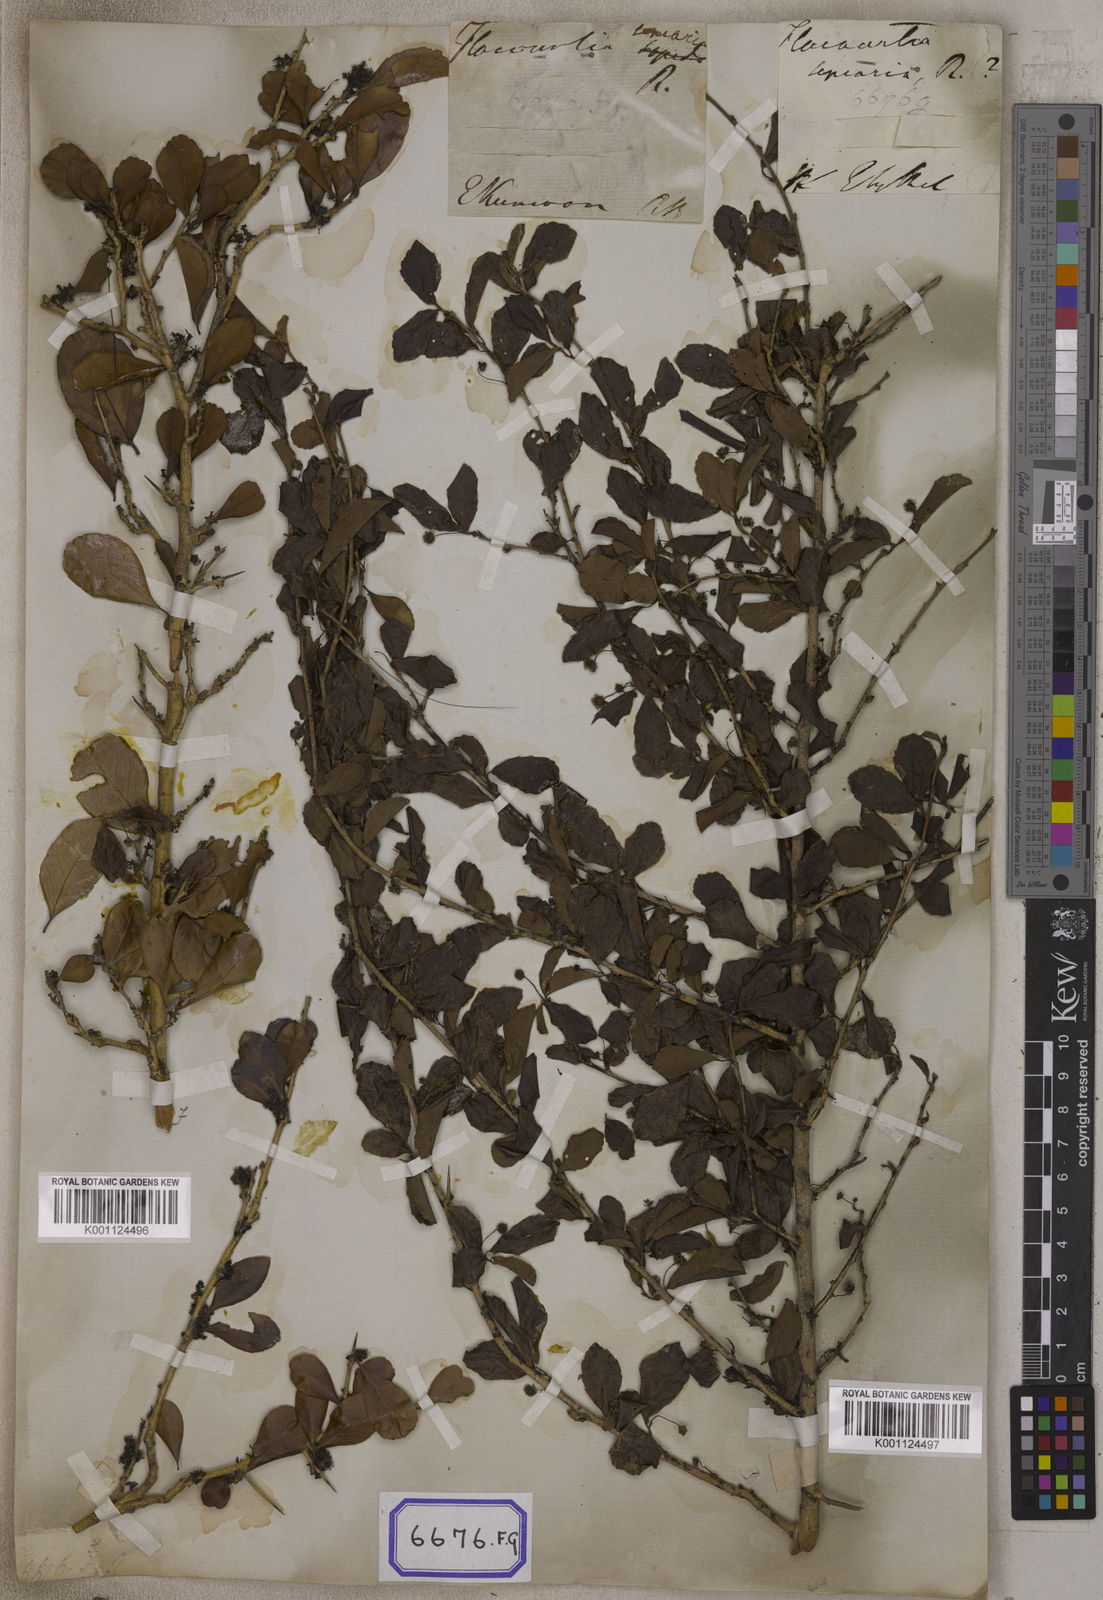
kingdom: Plantae
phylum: Tracheophyta
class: Magnoliopsida
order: Malpighiales
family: Salicaceae
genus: Flacourtia
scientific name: Flacourtia indica
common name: Governor's plum
